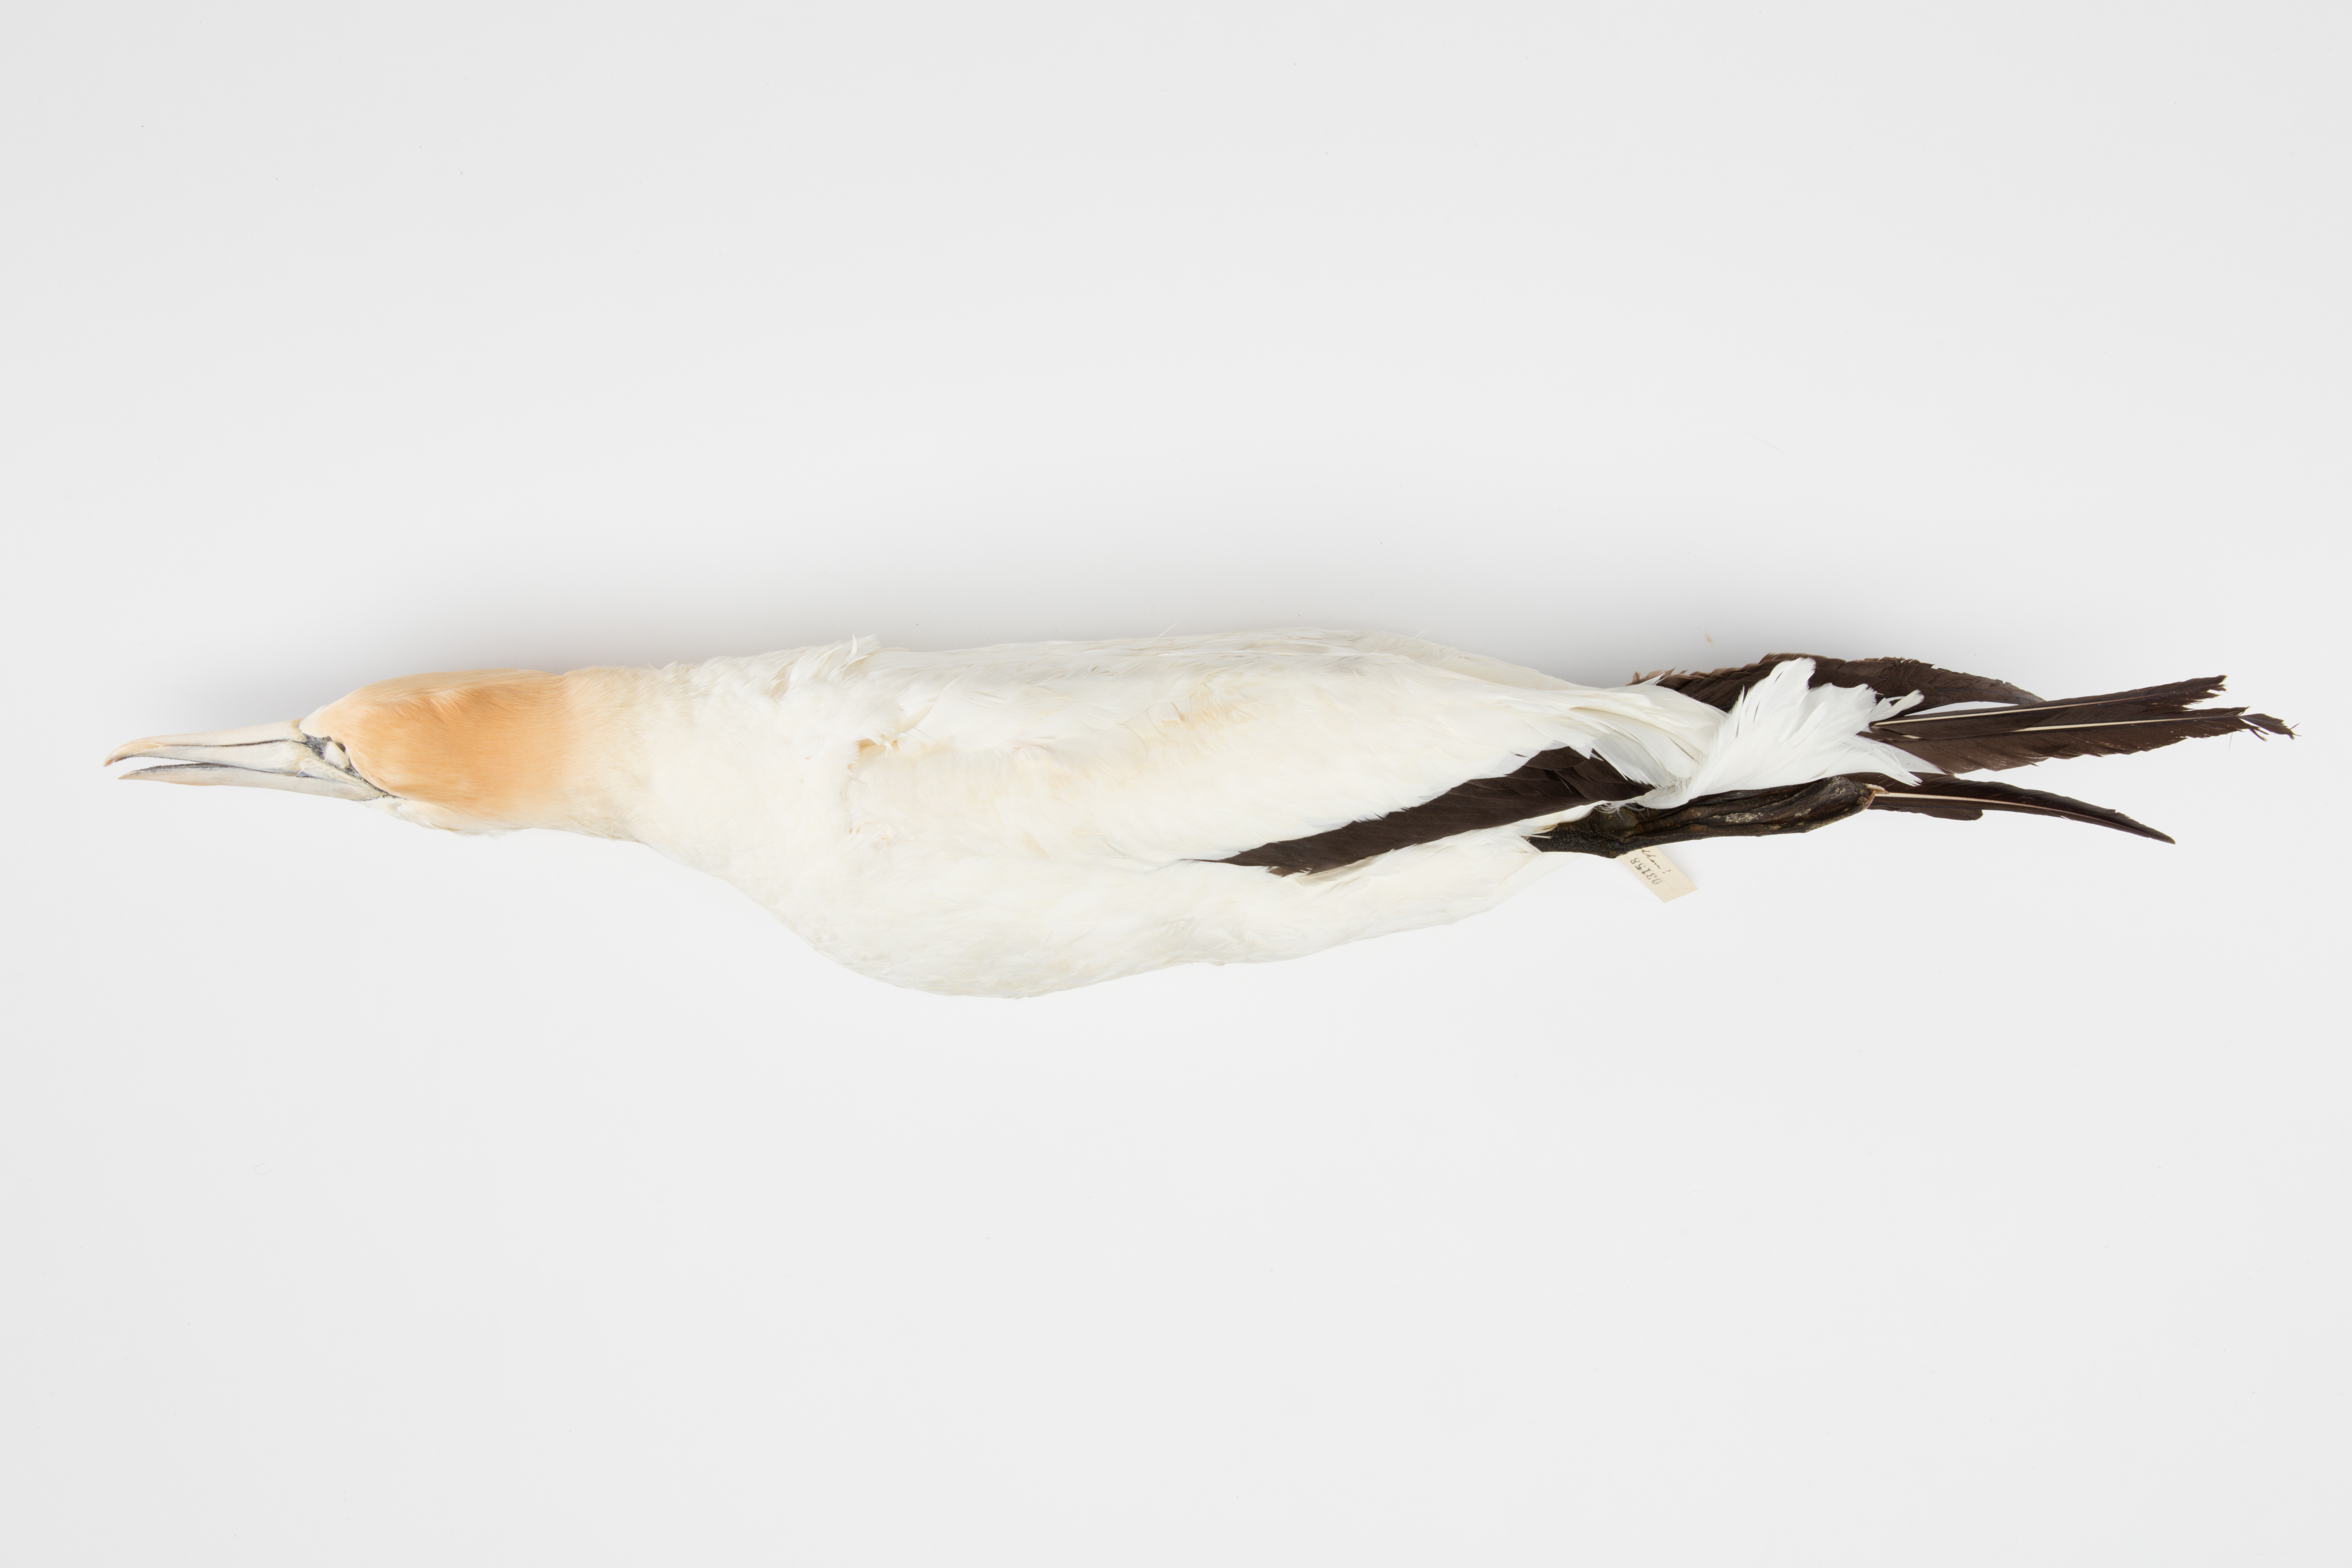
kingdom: Animalia
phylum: Chordata
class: Aves
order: Suliformes
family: Sulidae
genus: Morus
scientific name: Morus serrator
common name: Australasian gannet
